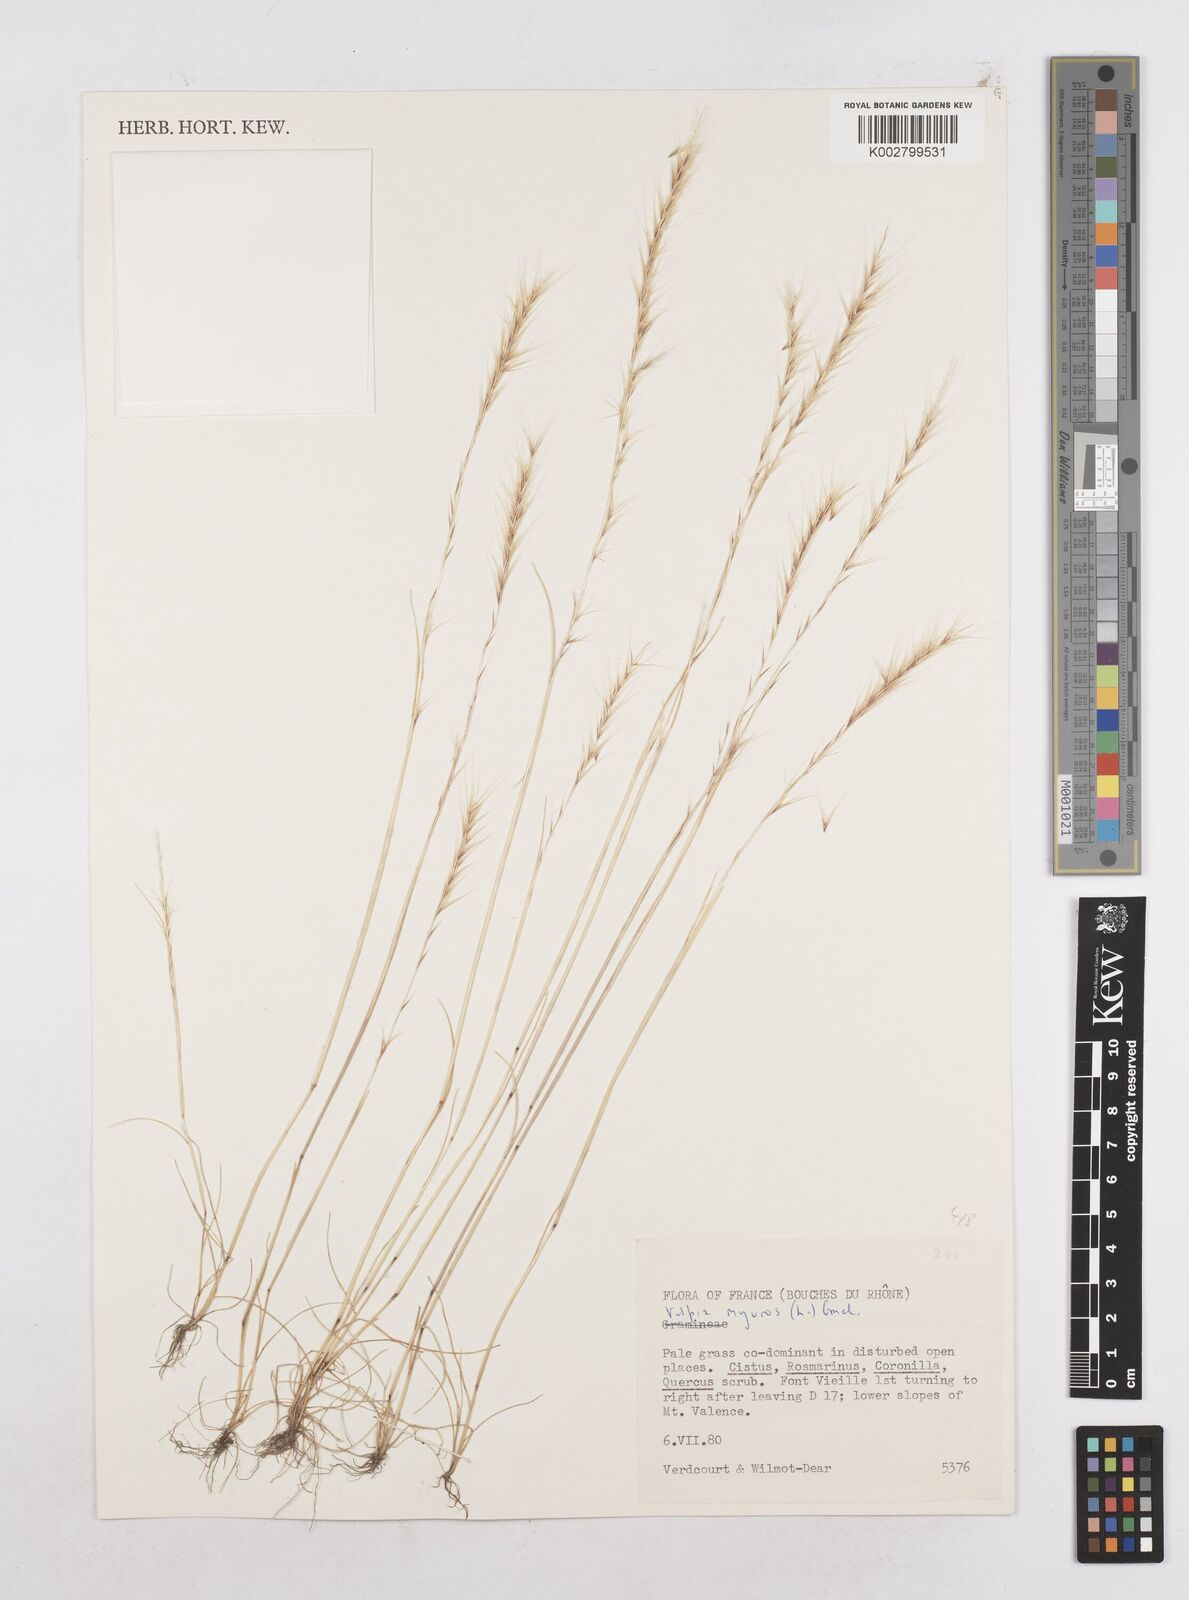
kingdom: Plantae
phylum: Tracheophyta
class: Liliopsida
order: Poales
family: Poaceae
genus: Festuca
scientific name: Festuca myuros
